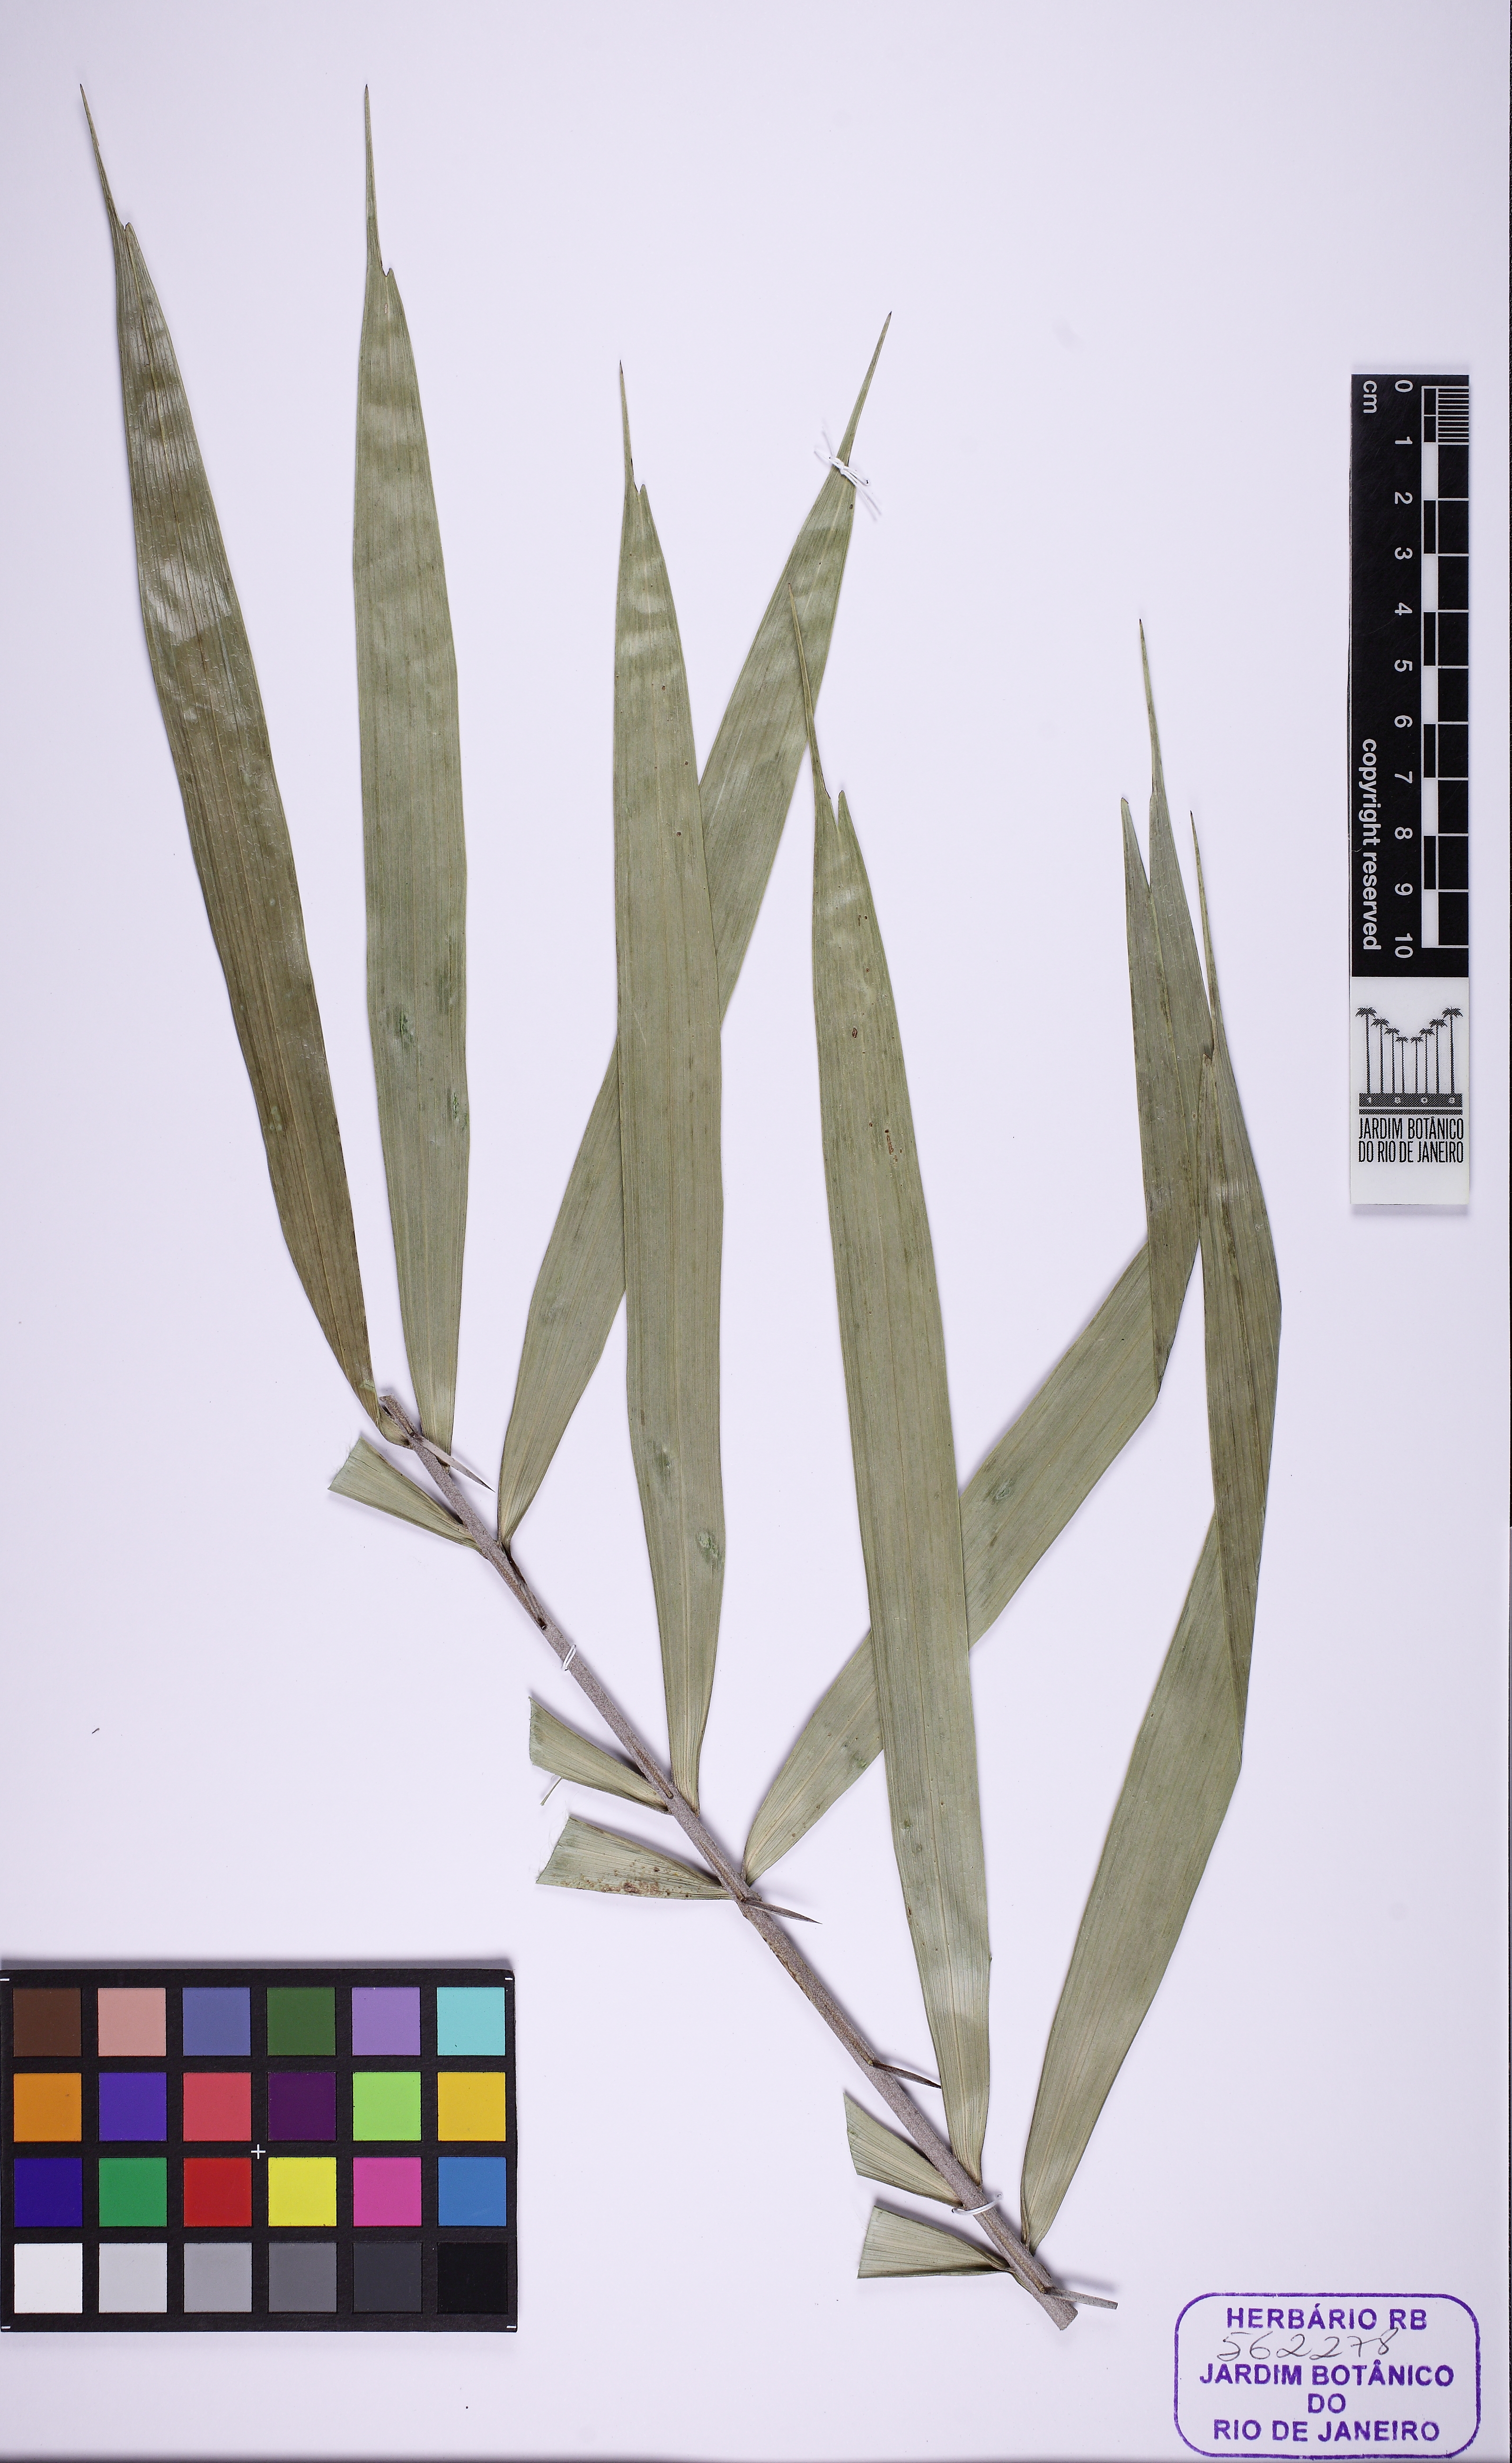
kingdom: Plantae
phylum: Tracheophyta
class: Liliopsida
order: Arecales
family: Arecaceae
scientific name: Arecaceae
